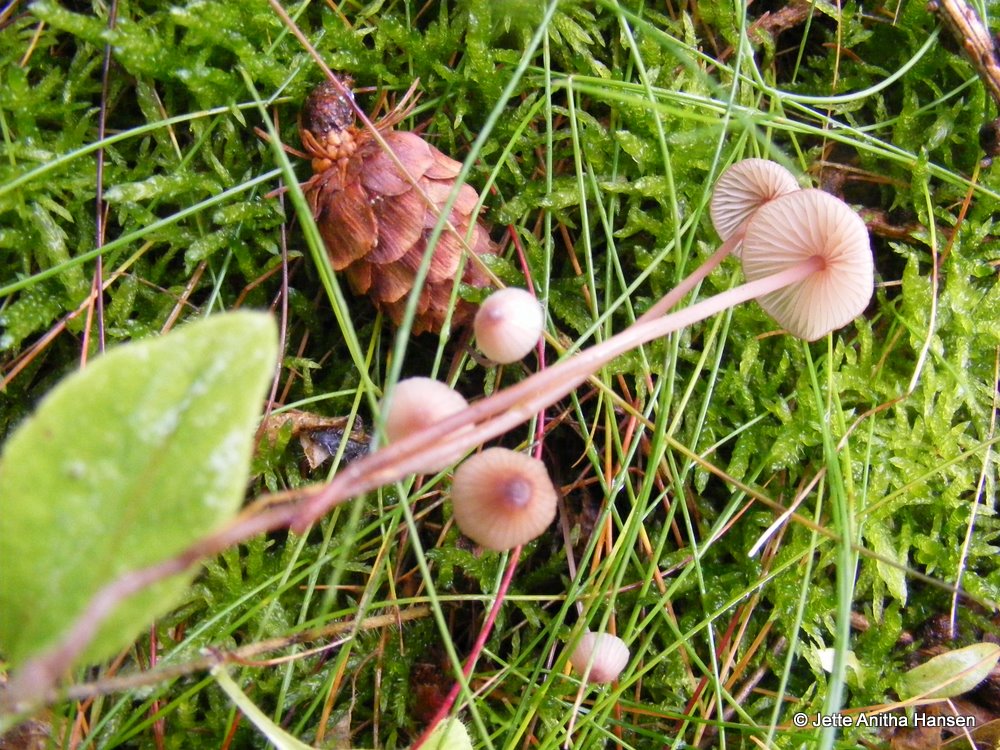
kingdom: Fungi
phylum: Basidiomycota
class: Agaricomycetes
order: Agaricales
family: Mycenaceae
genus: Mycena
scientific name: Mycena sanguinolenta
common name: rødmælket huesvamp
